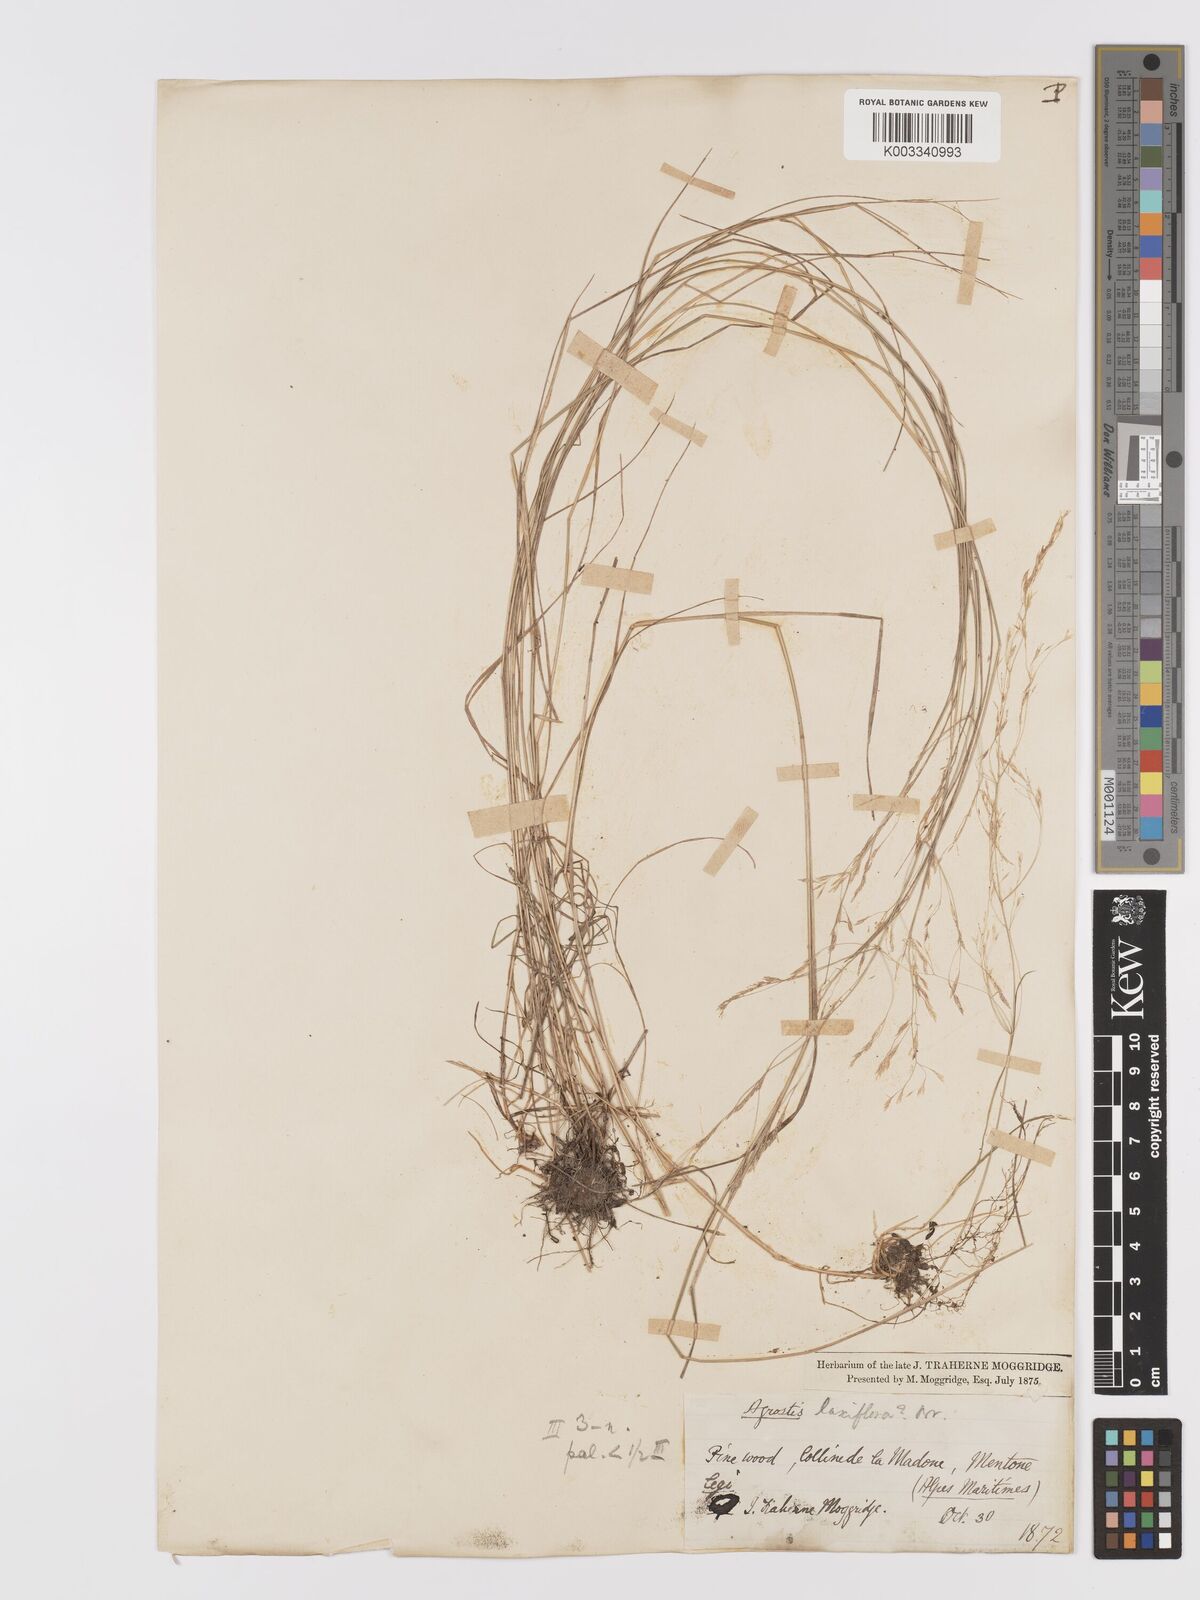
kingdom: Plantae
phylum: Tracheophyta
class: Liliopsida
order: Poales
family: Poaceae
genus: Agrostis
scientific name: Agrostis capillaris
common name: Colonial bentgrass
